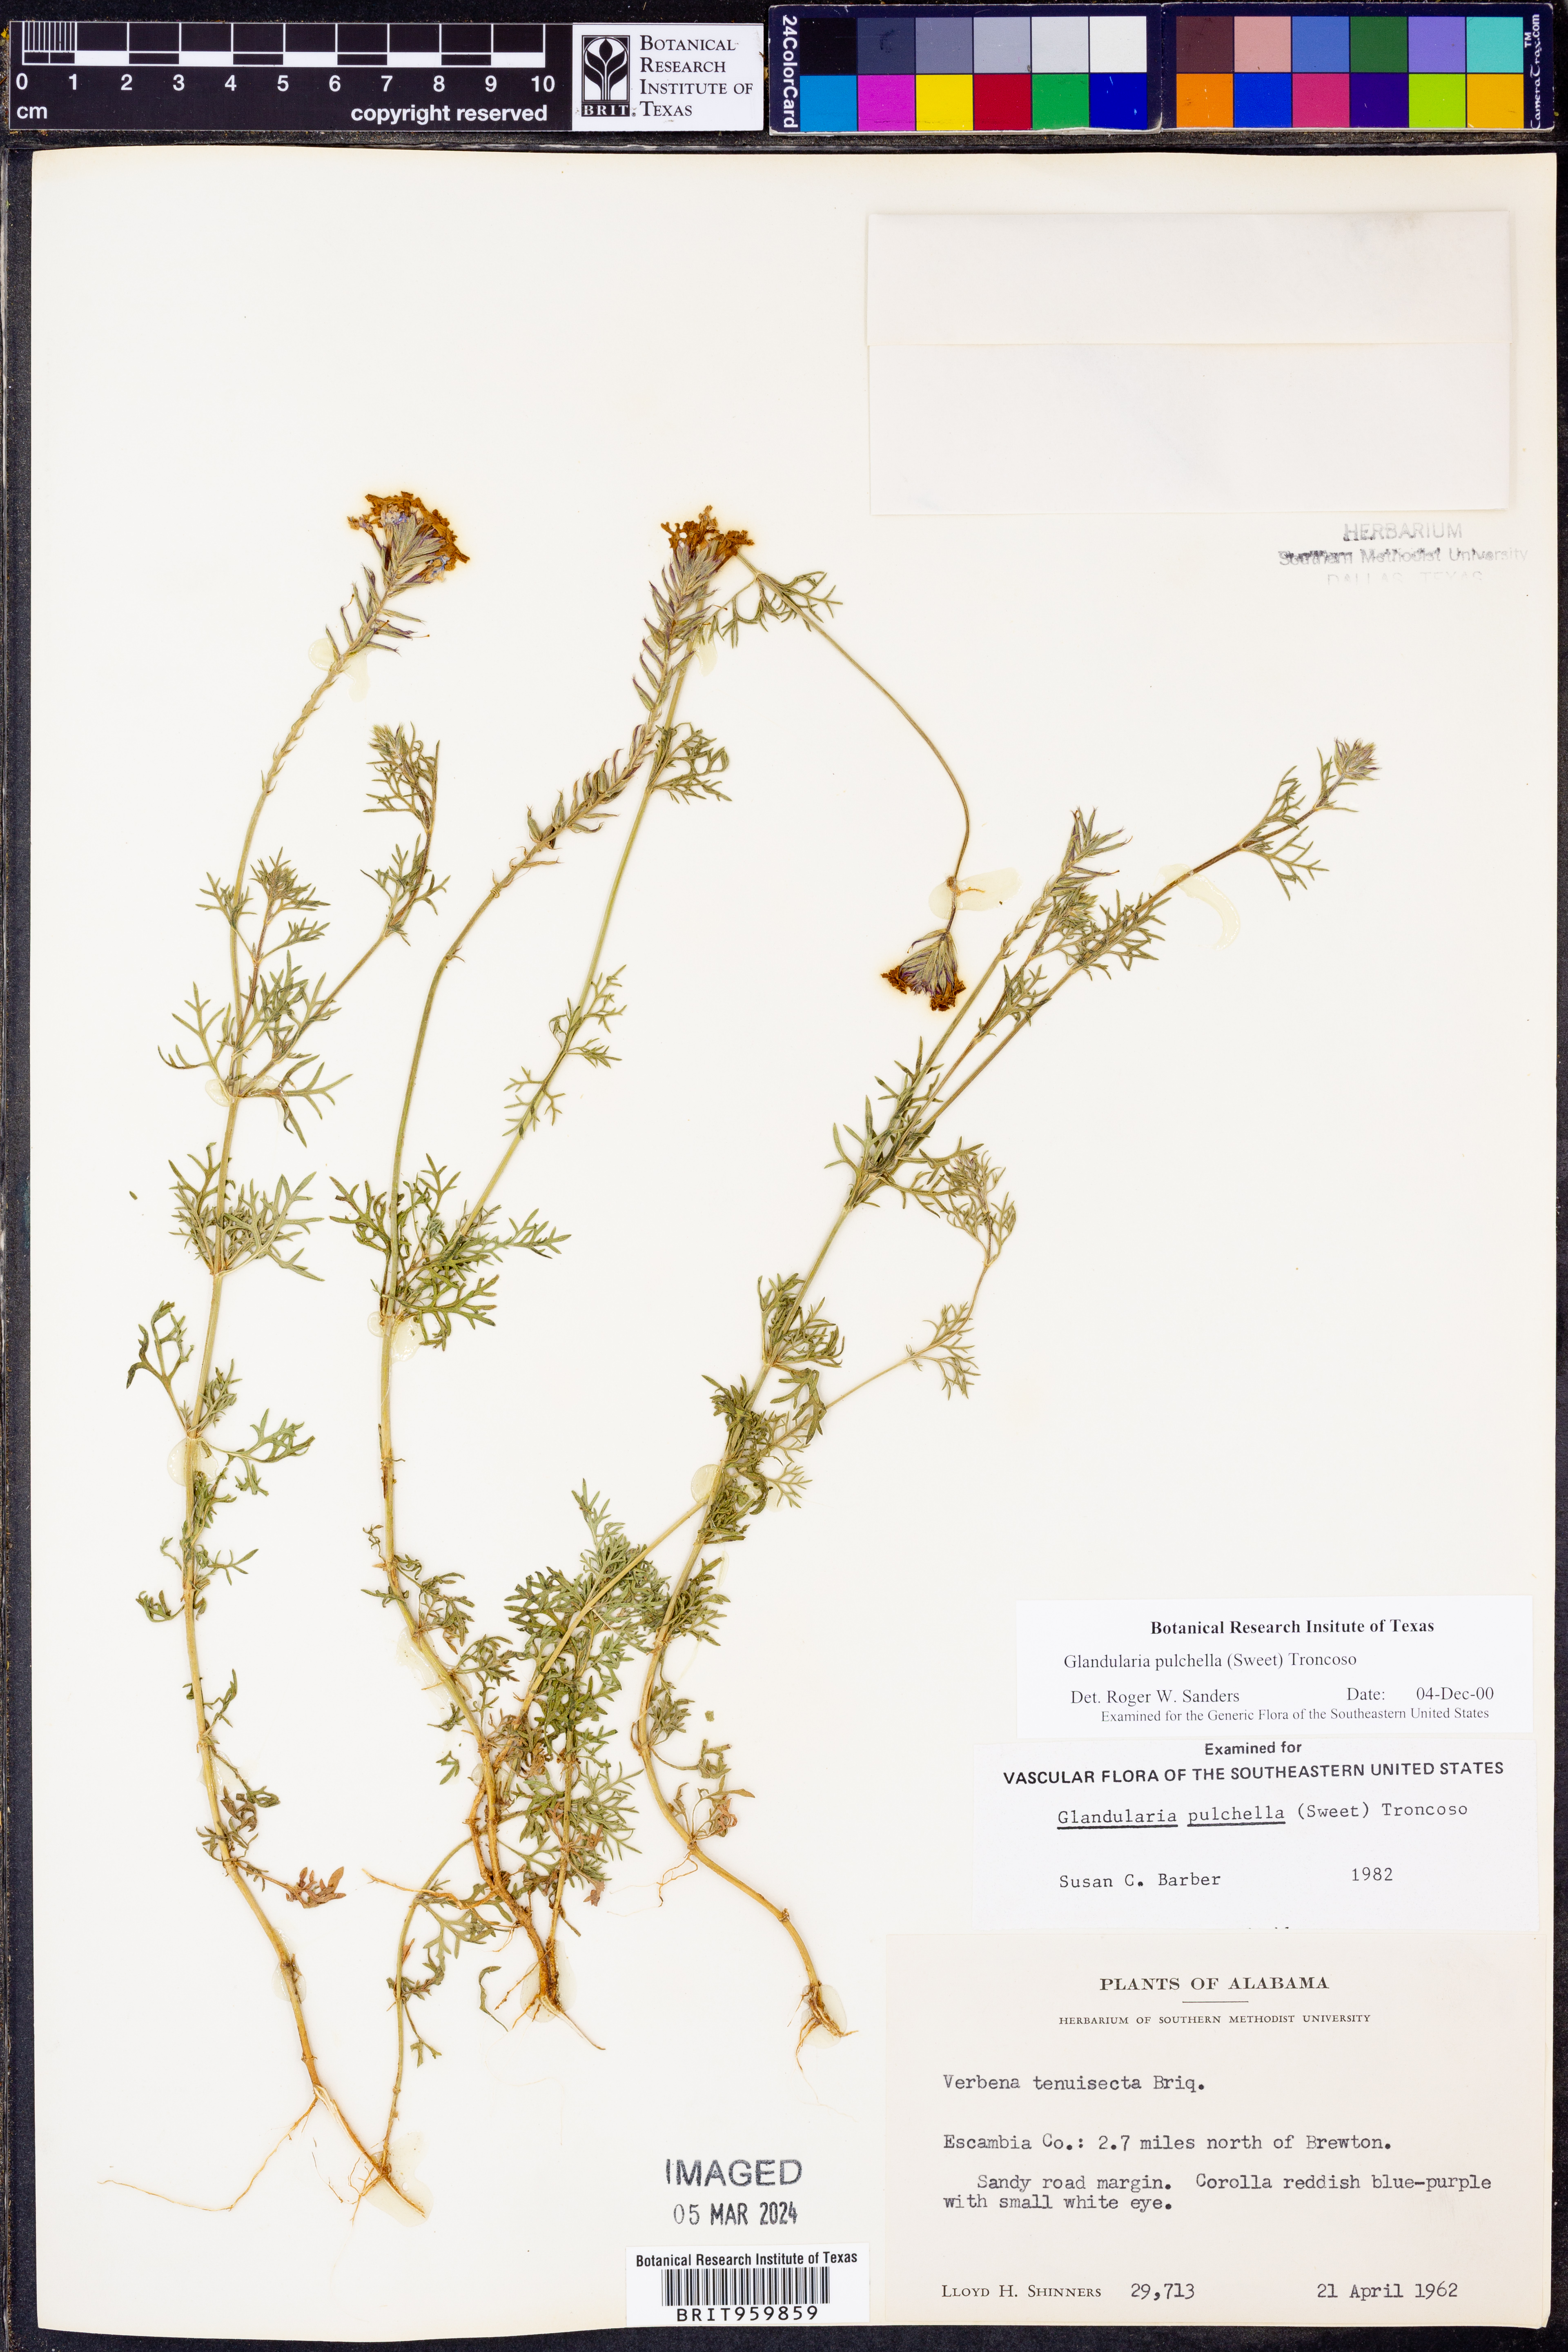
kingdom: Plantae
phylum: Tracheophyta
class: Magnoliopsida
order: Lamiales
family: Verbenaceae
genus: Verbena
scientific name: Verbena tenera
